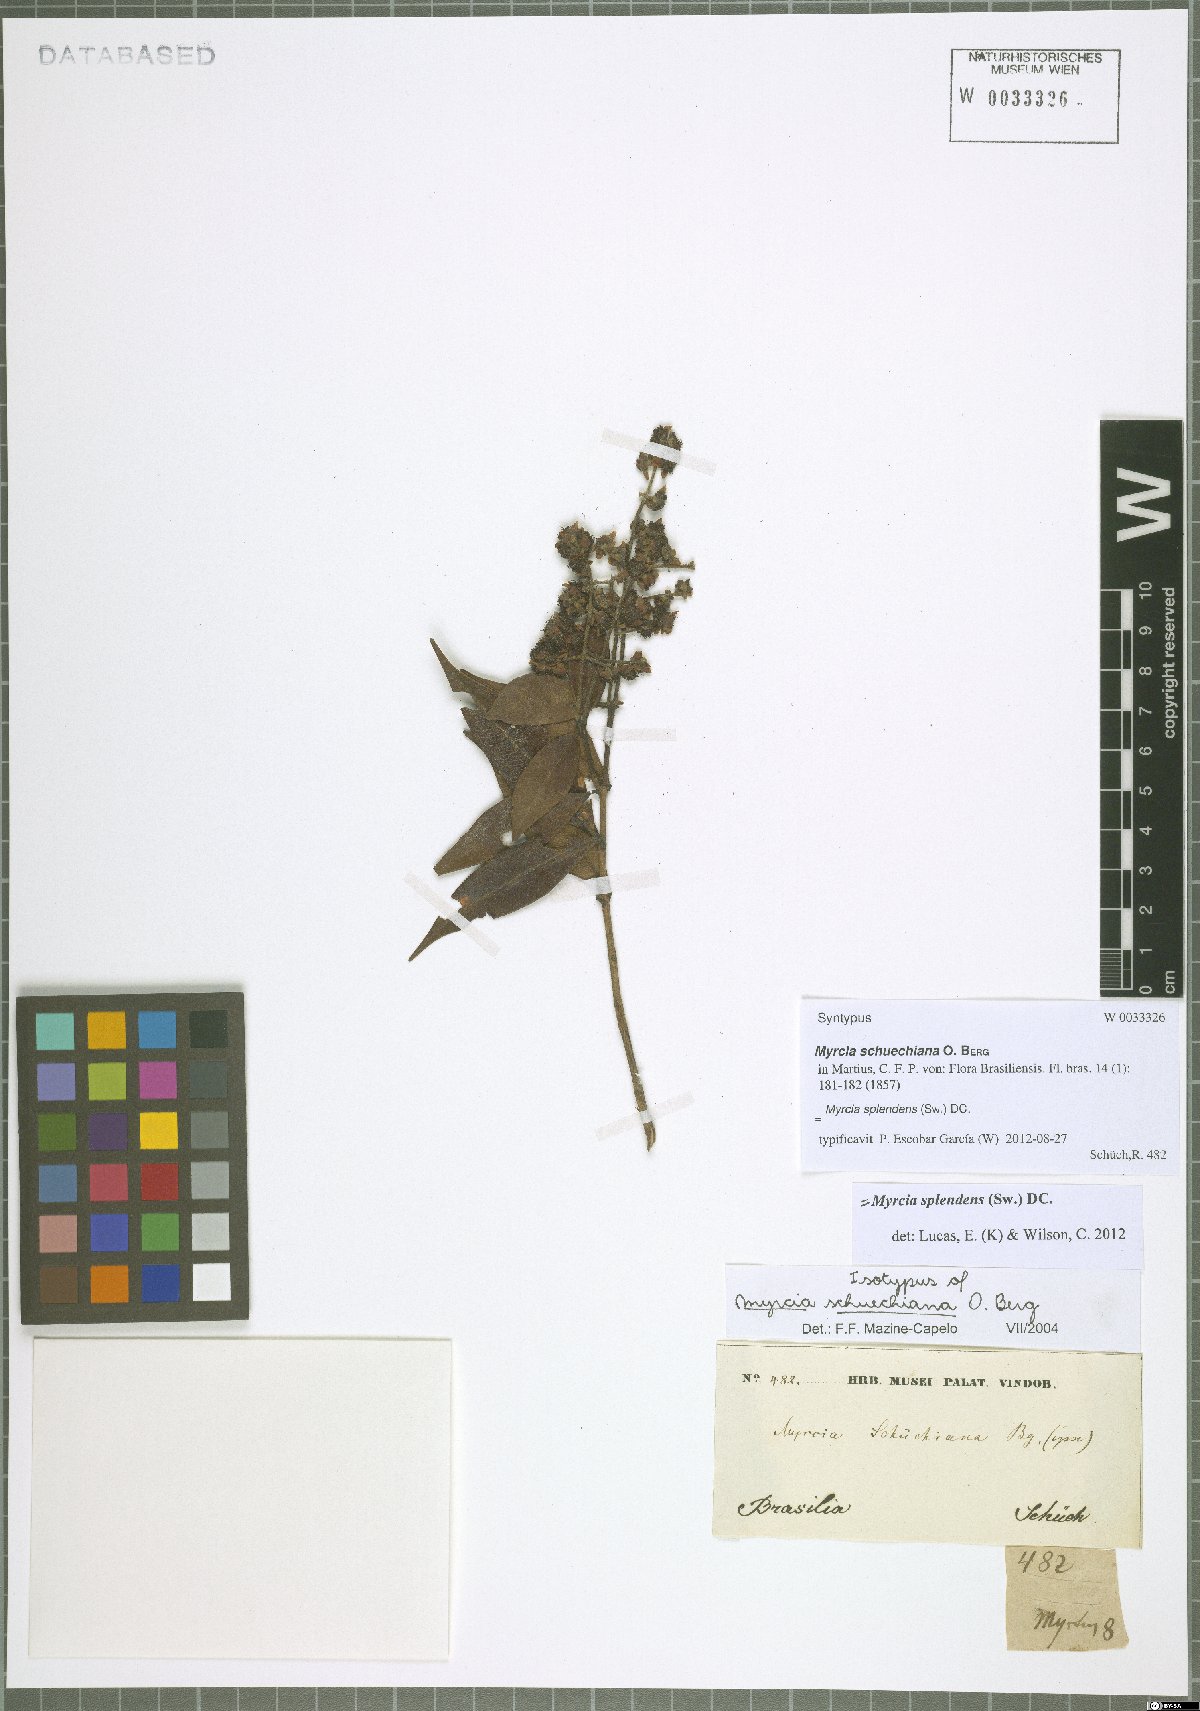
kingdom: Plantae
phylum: Tracheophyta
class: Magnoliopsida
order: Myrtales
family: Myrtaceae
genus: Myrcia
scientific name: Myrcia splendens
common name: Surinam cherry
